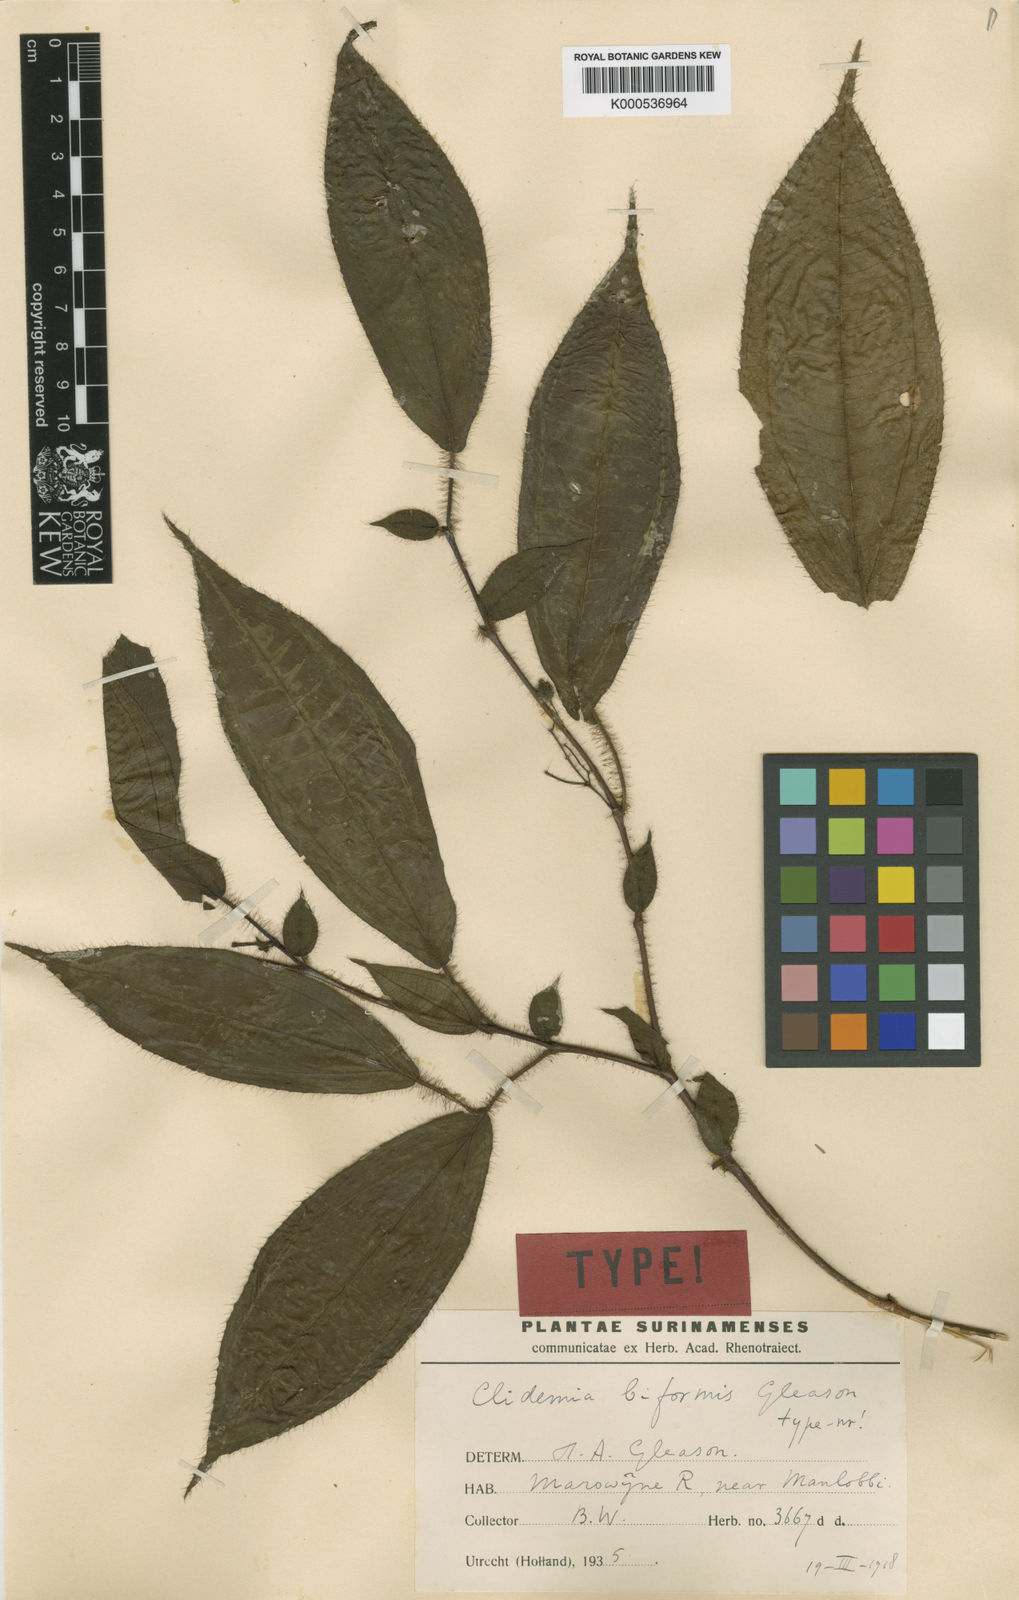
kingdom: Plantae
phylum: Tracheophyta
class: Magnoliopsida
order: Myrtales
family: Melastomataceae
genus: Miconia
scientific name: Miconia asymmetrica
